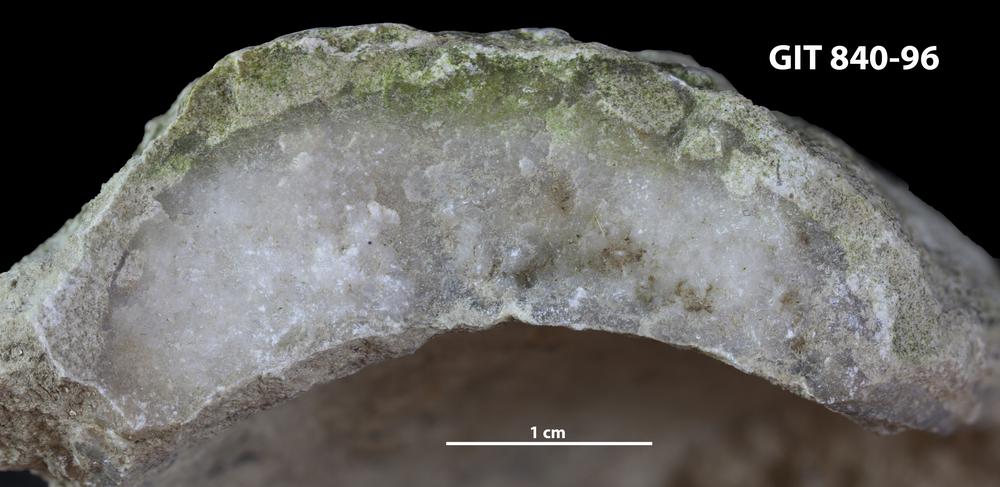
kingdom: Animalia
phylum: Porifera
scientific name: Porifera
